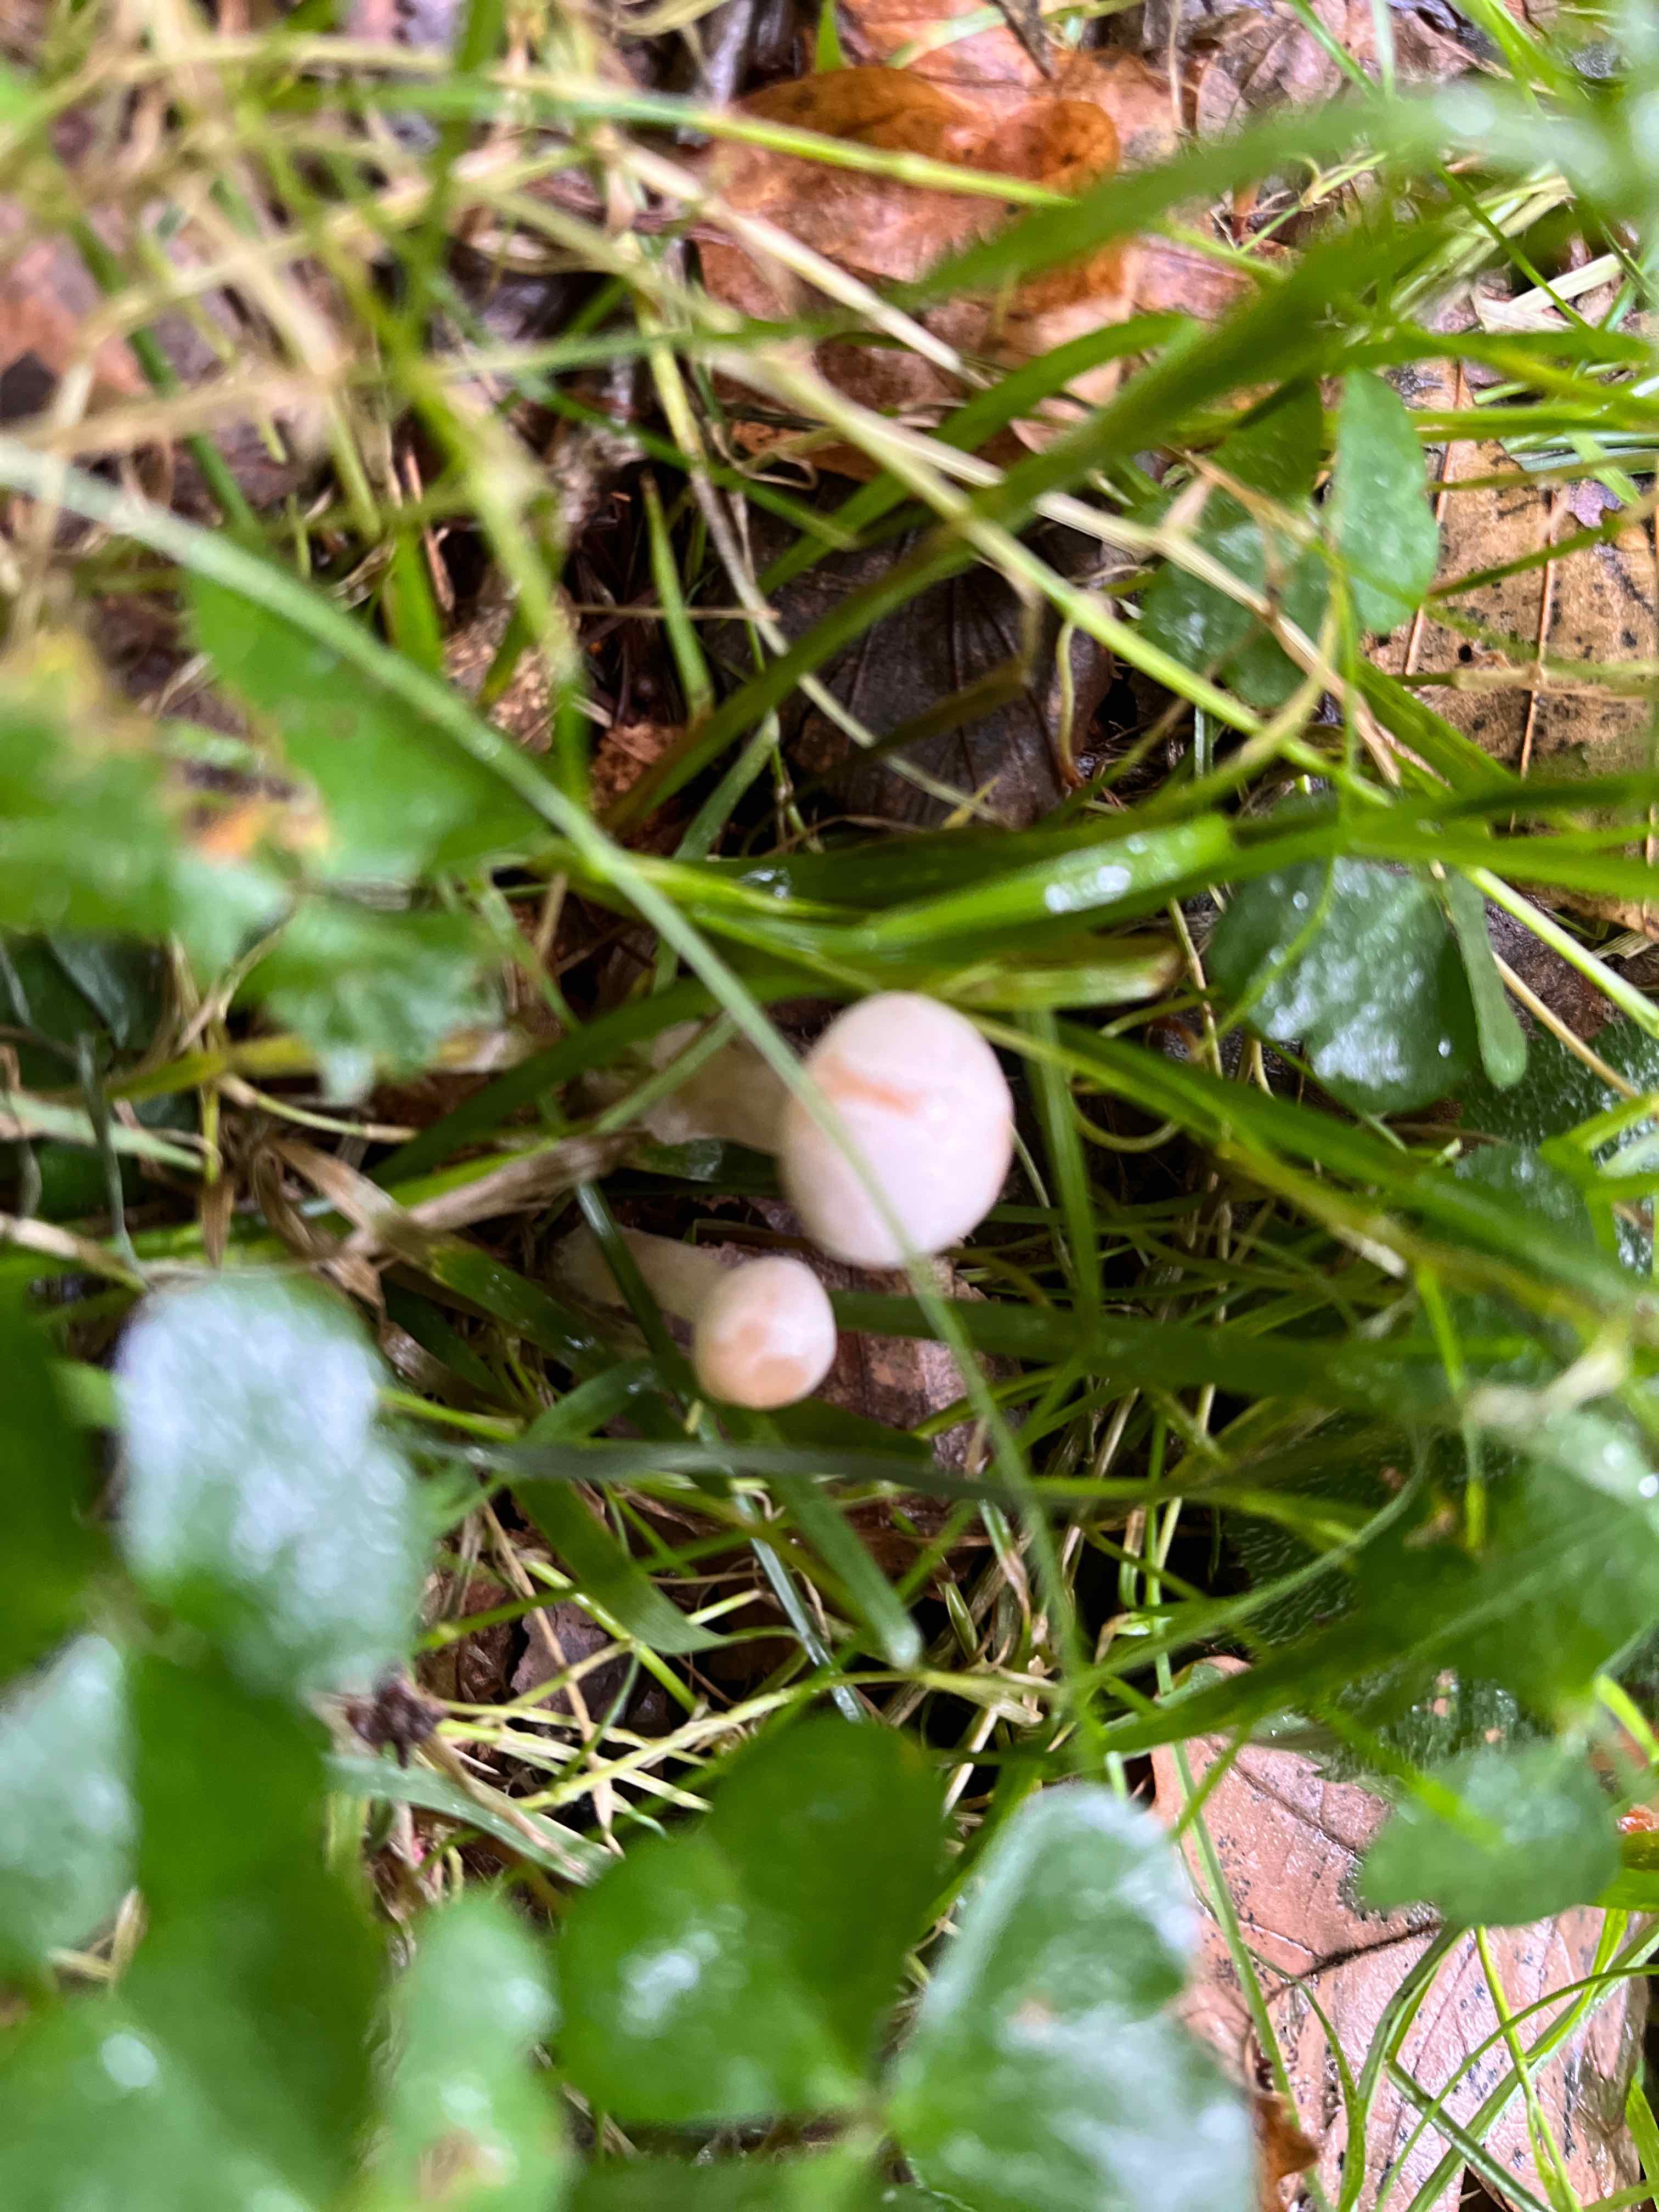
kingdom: Fungi
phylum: Basidiomycota
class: Agaricomycetes
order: Agaricales
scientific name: Agaricales
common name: champignonordenen
